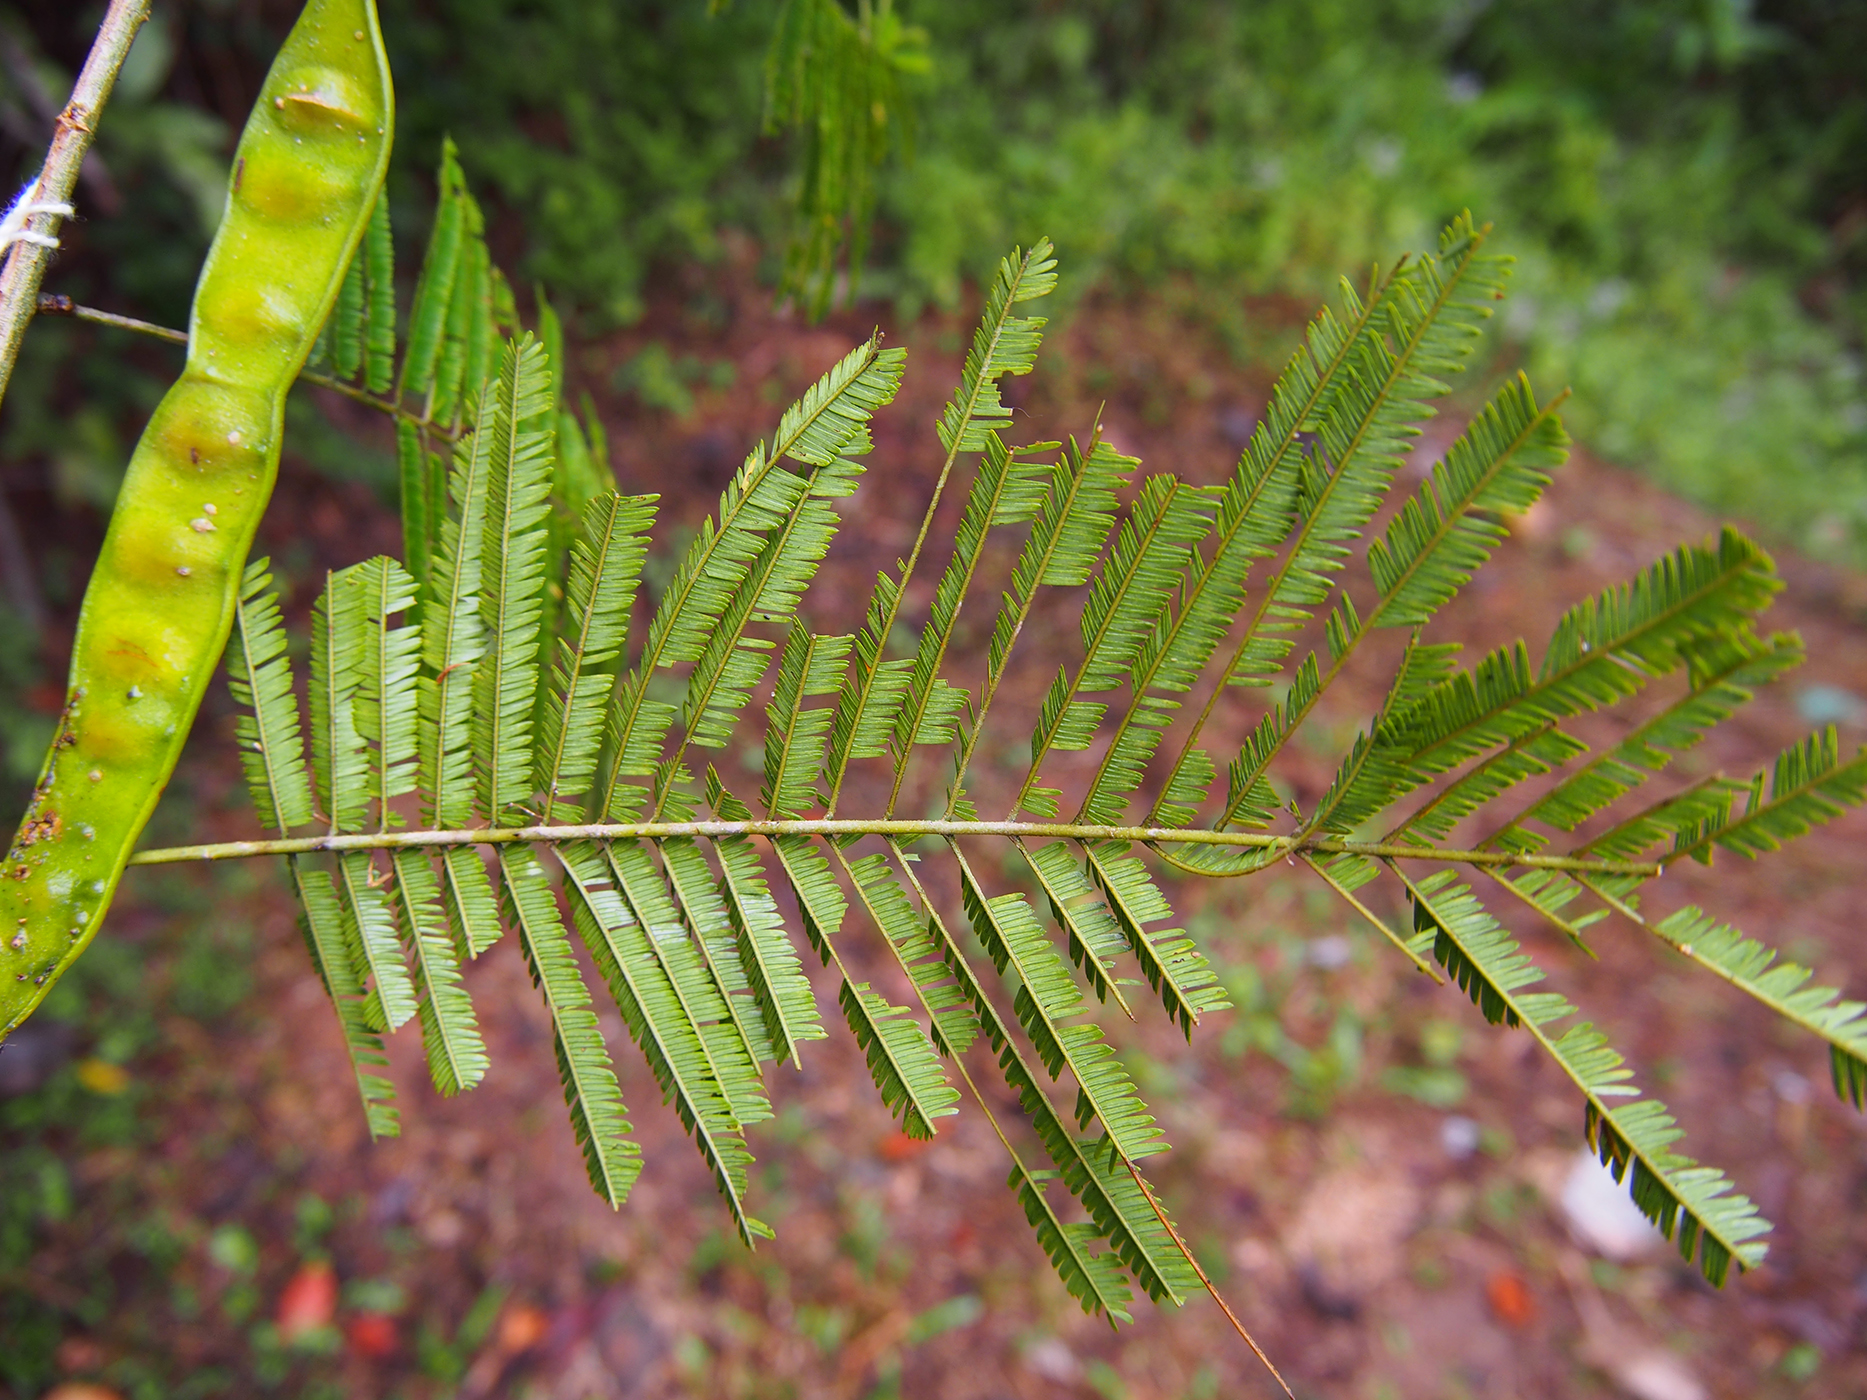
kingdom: Plantae
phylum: Tracheophyta
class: Magnoliopsida
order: Fabales
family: Fabaceae
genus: Senegalia
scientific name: Senegalia pennata
